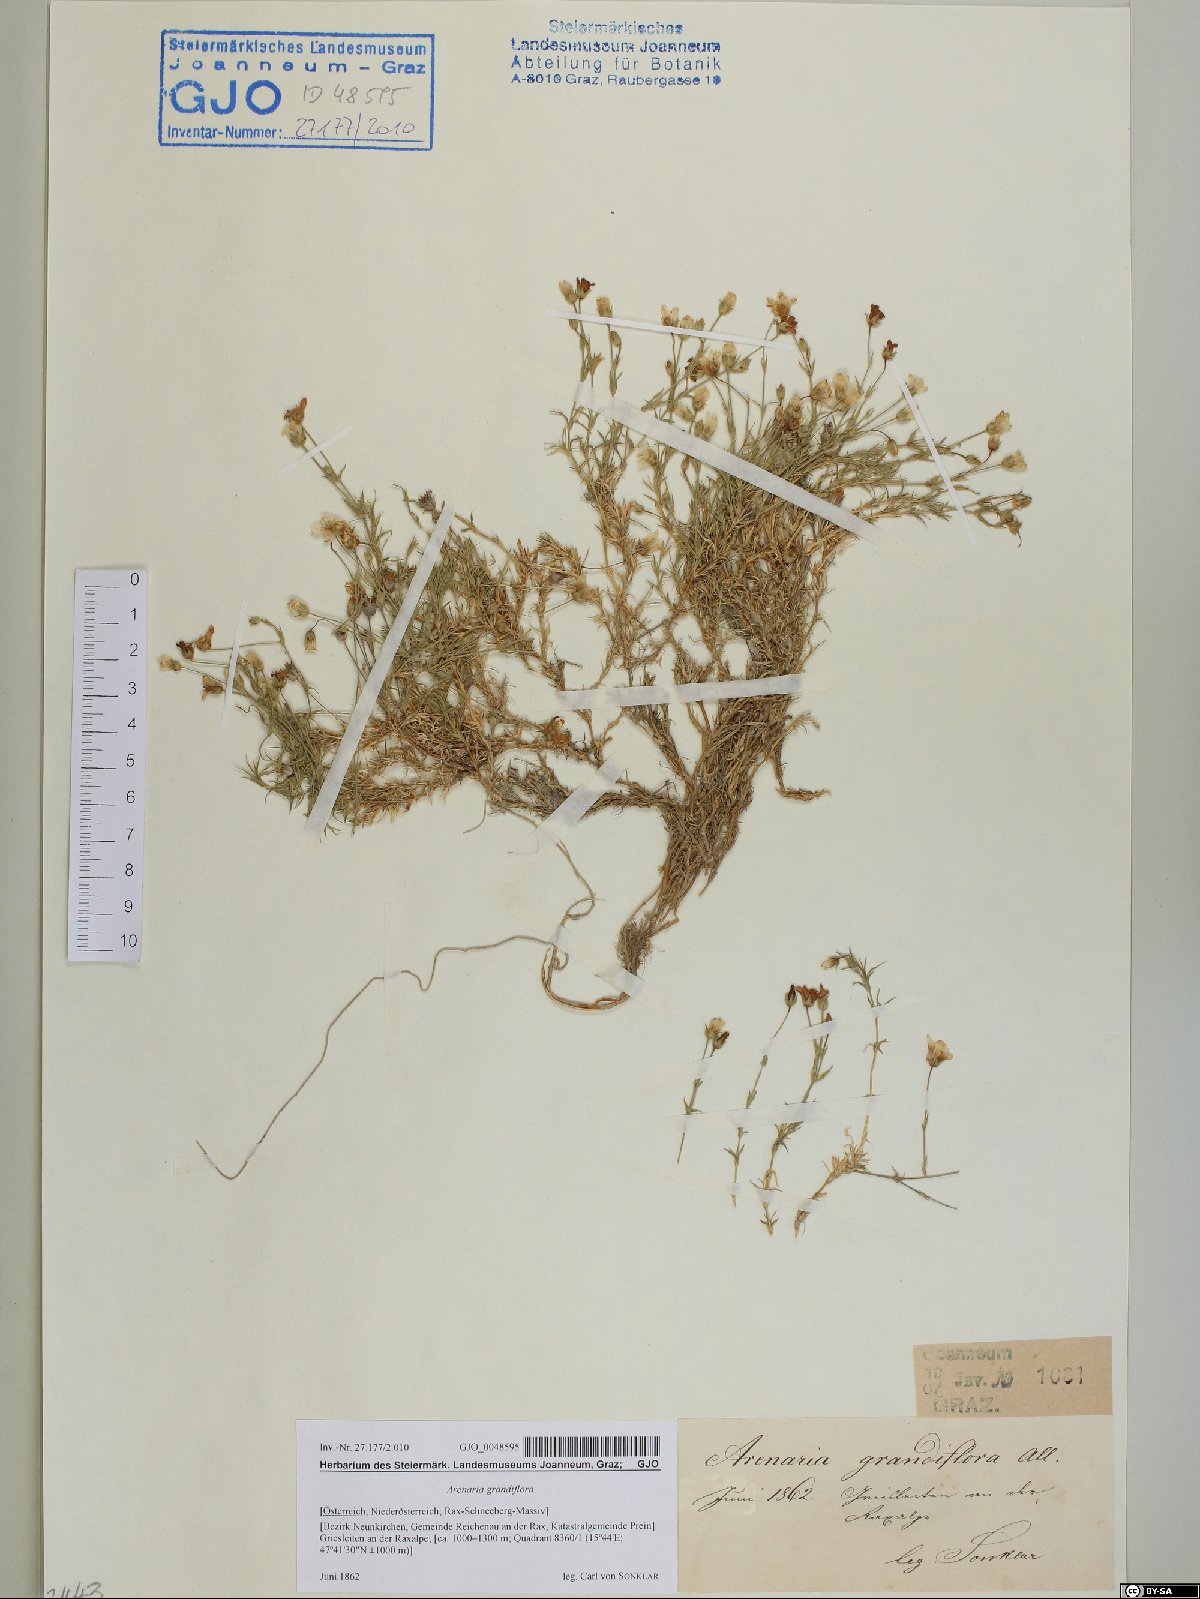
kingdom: Plantae
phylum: Tracheophyta
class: Magnoliopsida
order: Caryophyllales
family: Caryophyllaceae
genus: Arenaria
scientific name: Arenaria grandiflora
